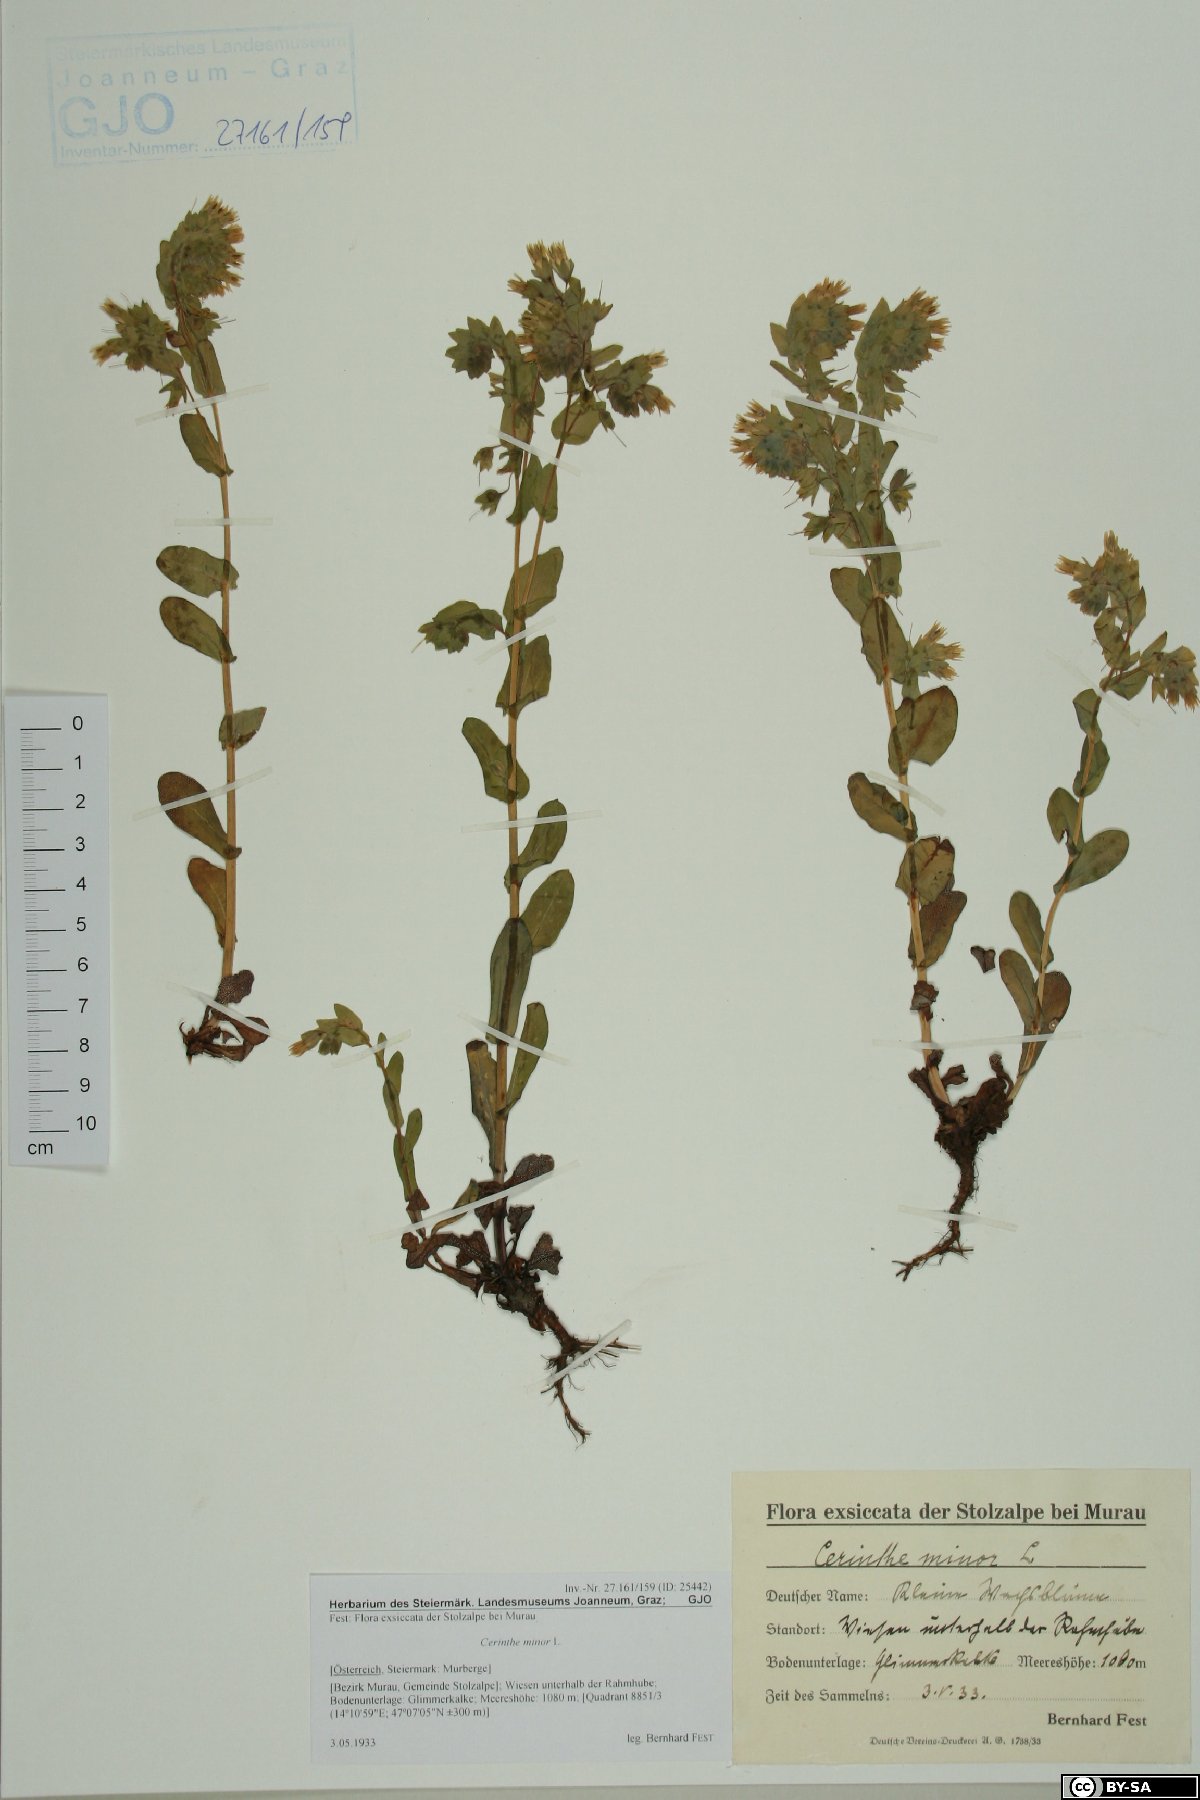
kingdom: Plantae
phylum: Tracheophyta
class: Magnoliopsida
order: Boraginales
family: Boraginaceae
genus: Cerinthe
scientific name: Cerinthe minor
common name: Lesser honeywort
